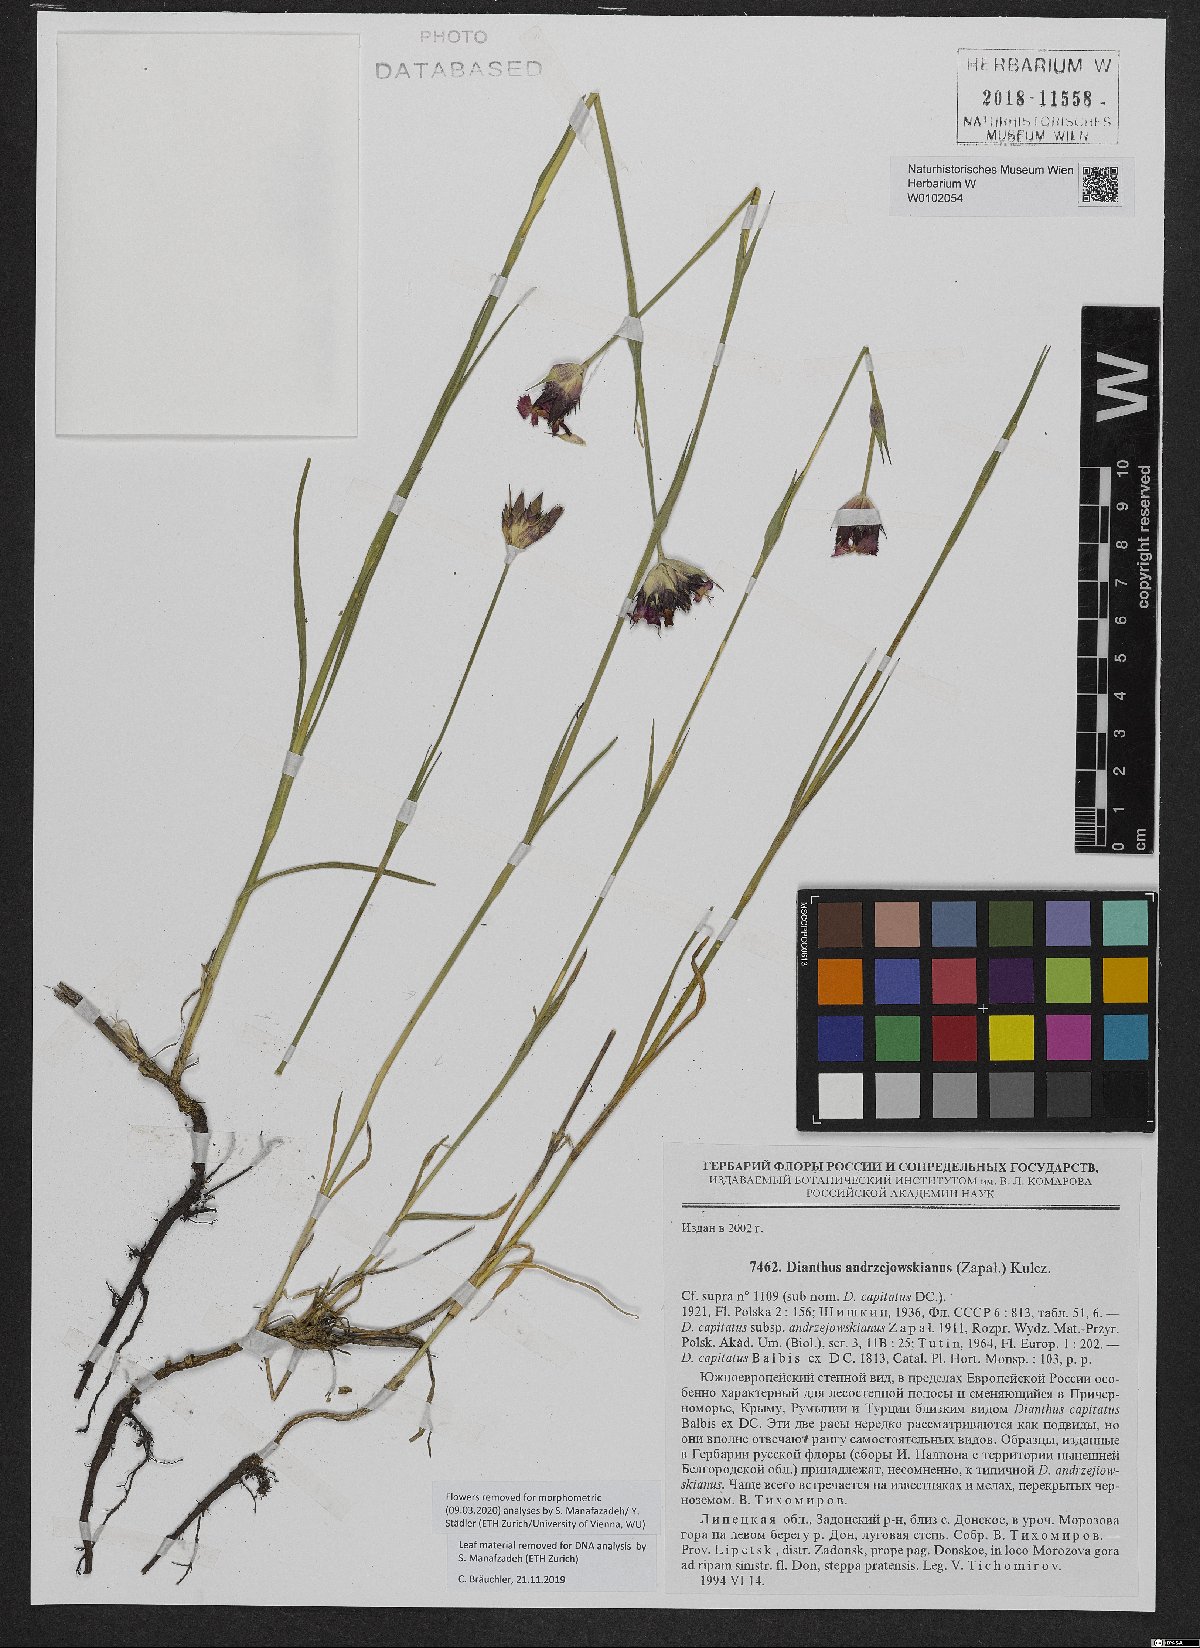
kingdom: Plantae
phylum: Tracheophyta
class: Magnoliopsida
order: Caryophyllales
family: Caryophyllaceae
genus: Dianthus
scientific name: Dianthus capitatus
